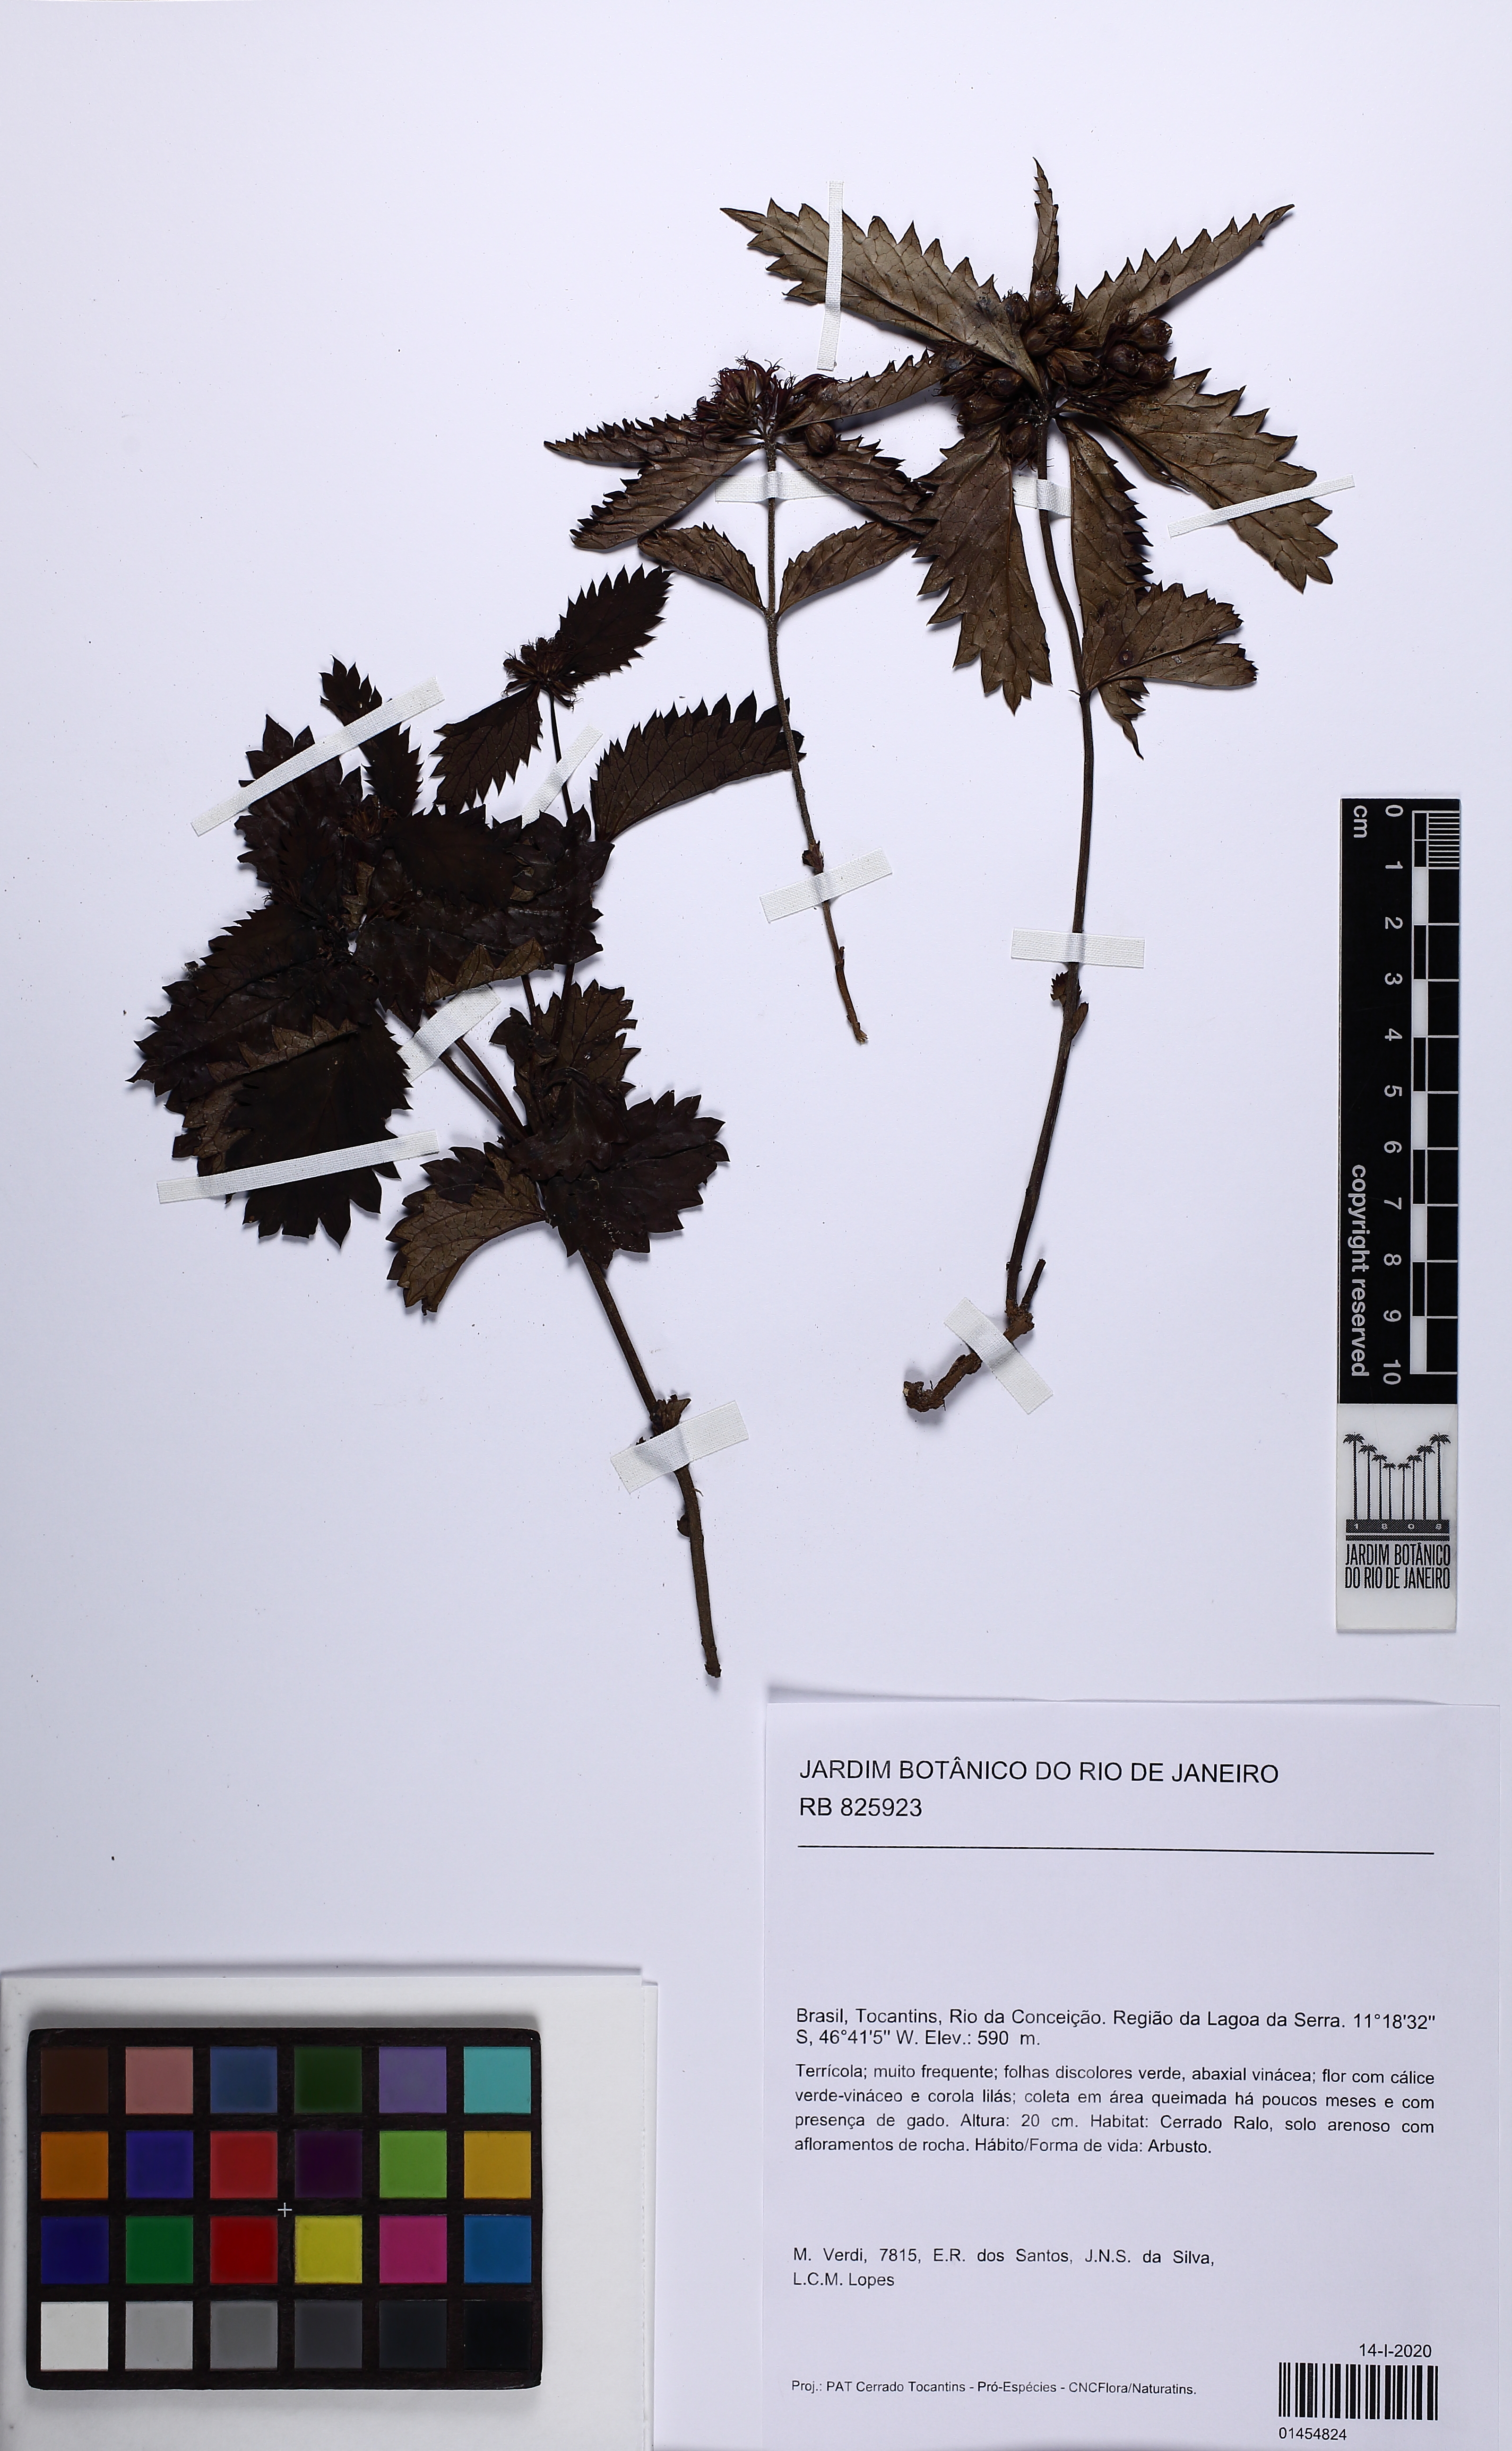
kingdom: Plantae
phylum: Tracheophyta
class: Magnoliopsida
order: Lamiales
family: Verbenaceae
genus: Casselia
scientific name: Casselia
